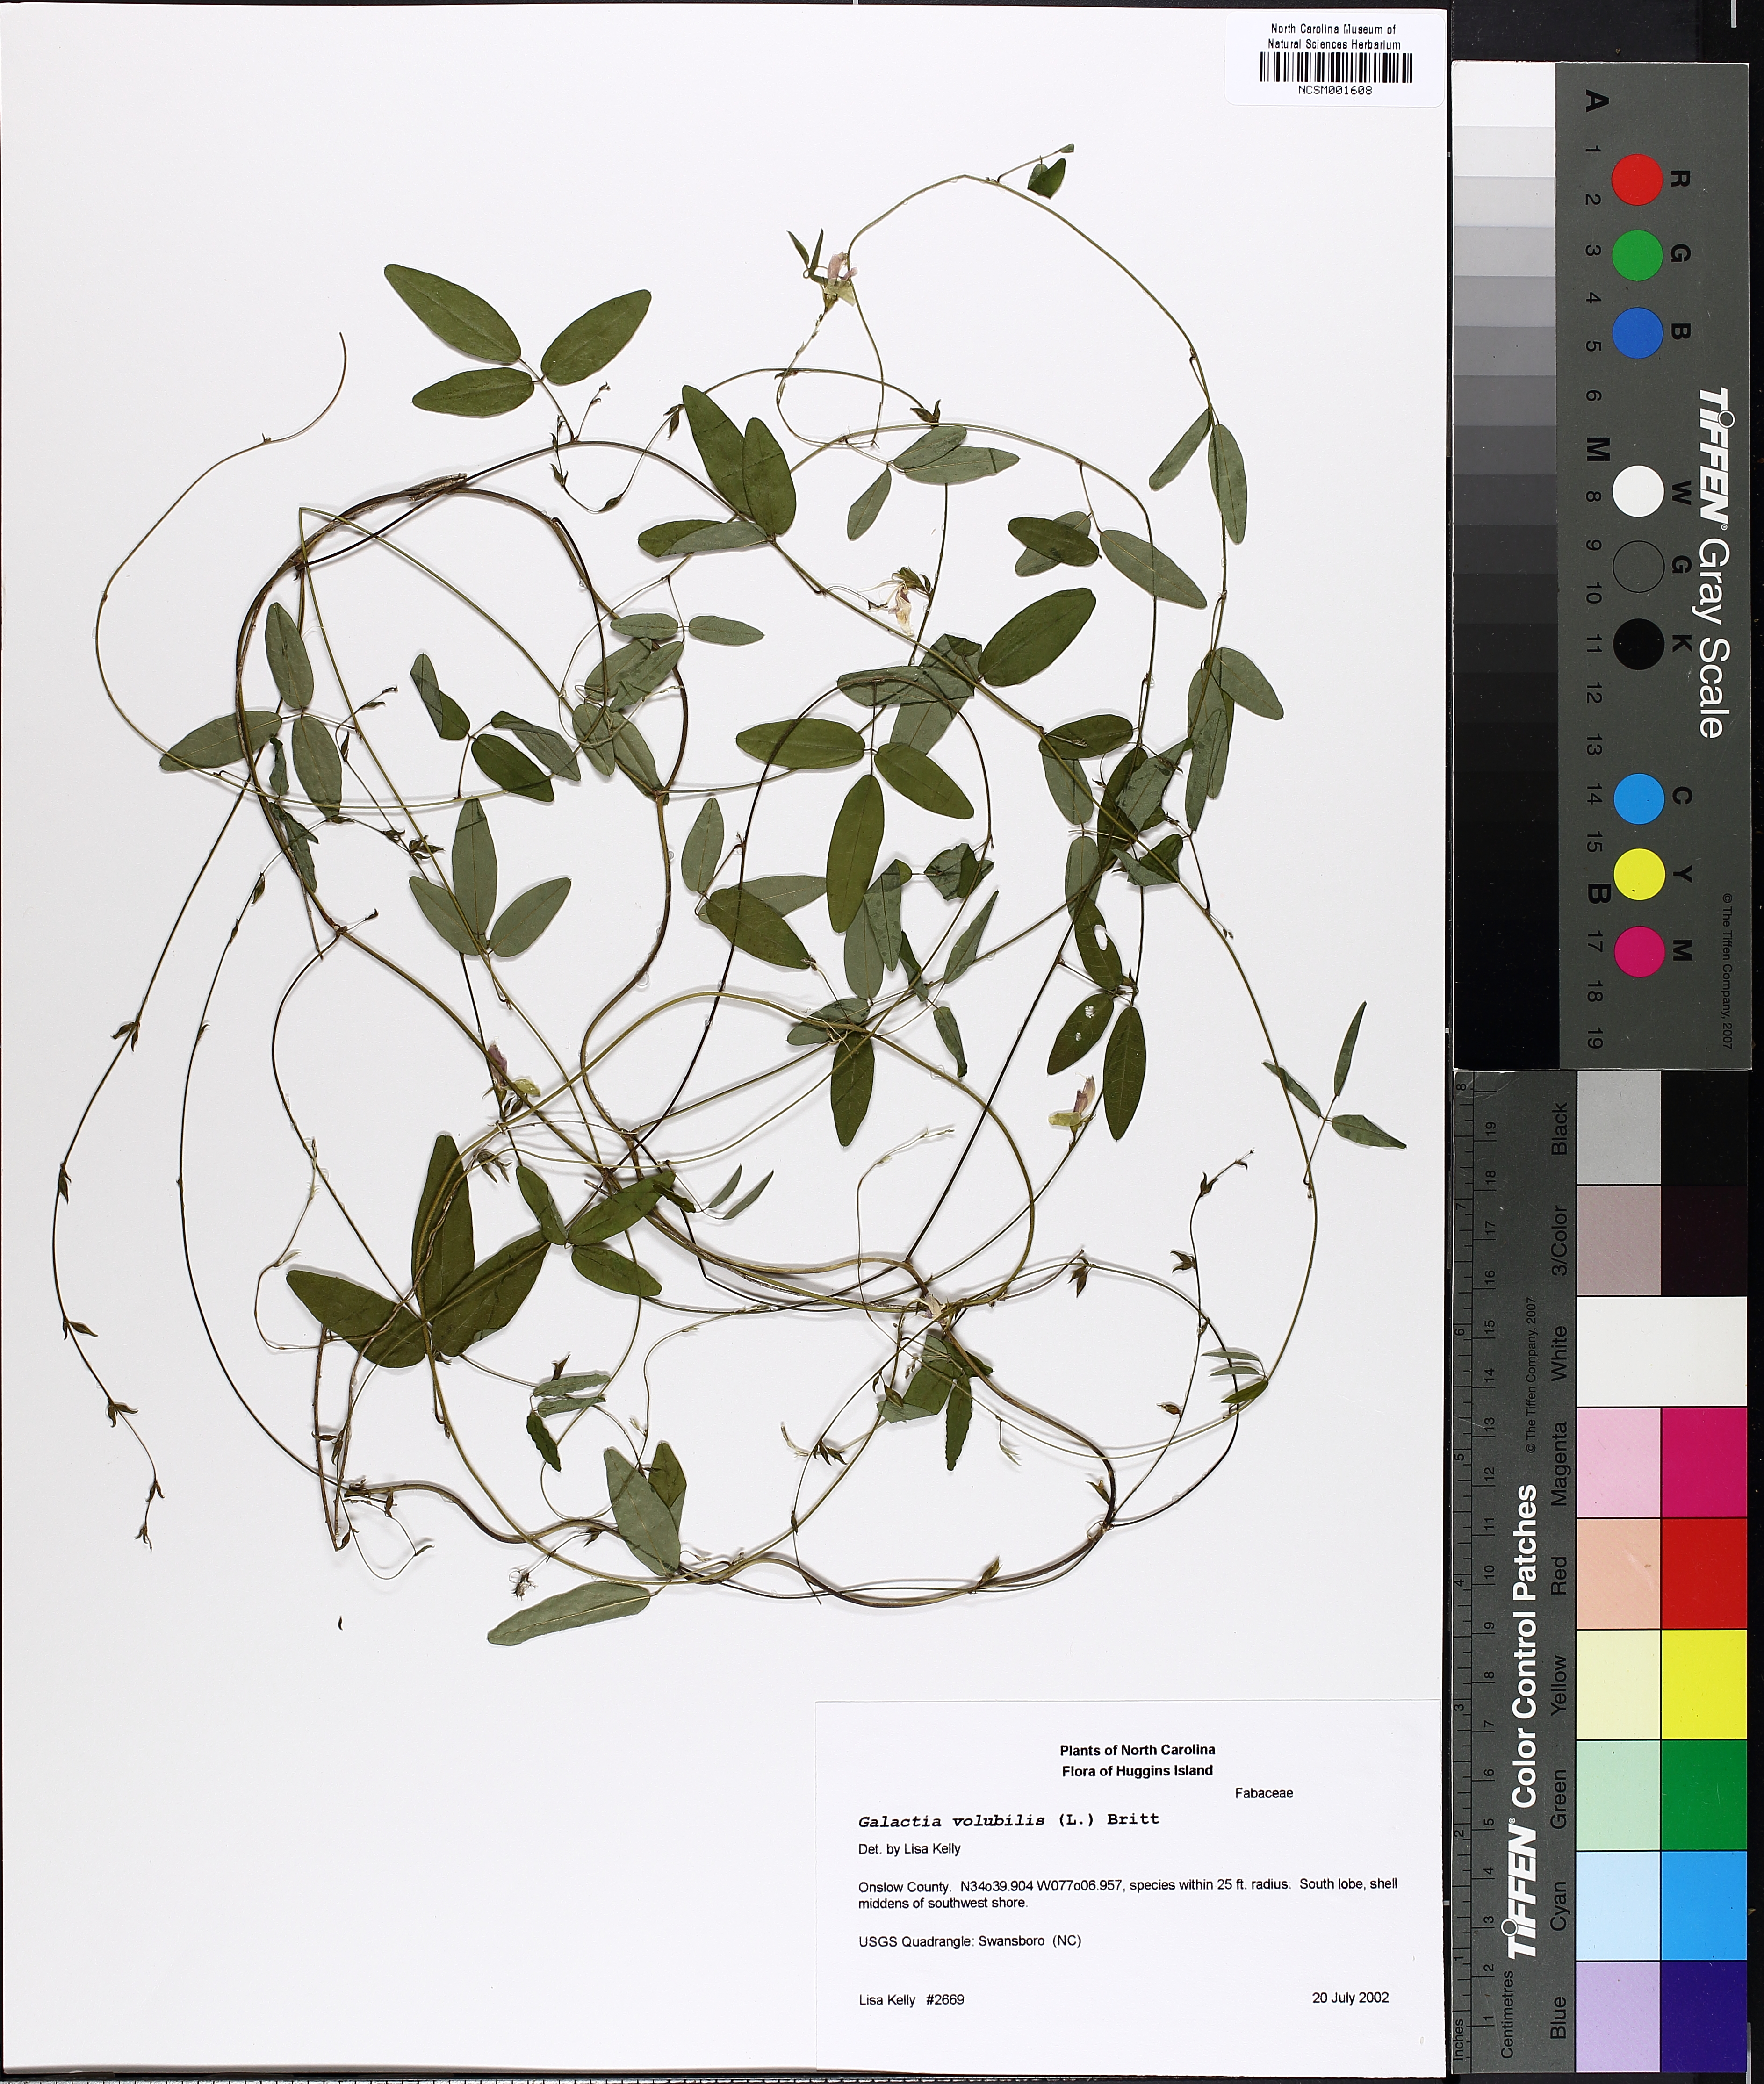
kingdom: Plantae
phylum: Tracheophyta
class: Magnoliopsida
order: Fabales
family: Fabaceae
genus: Galactia
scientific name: Galactia volubilis
